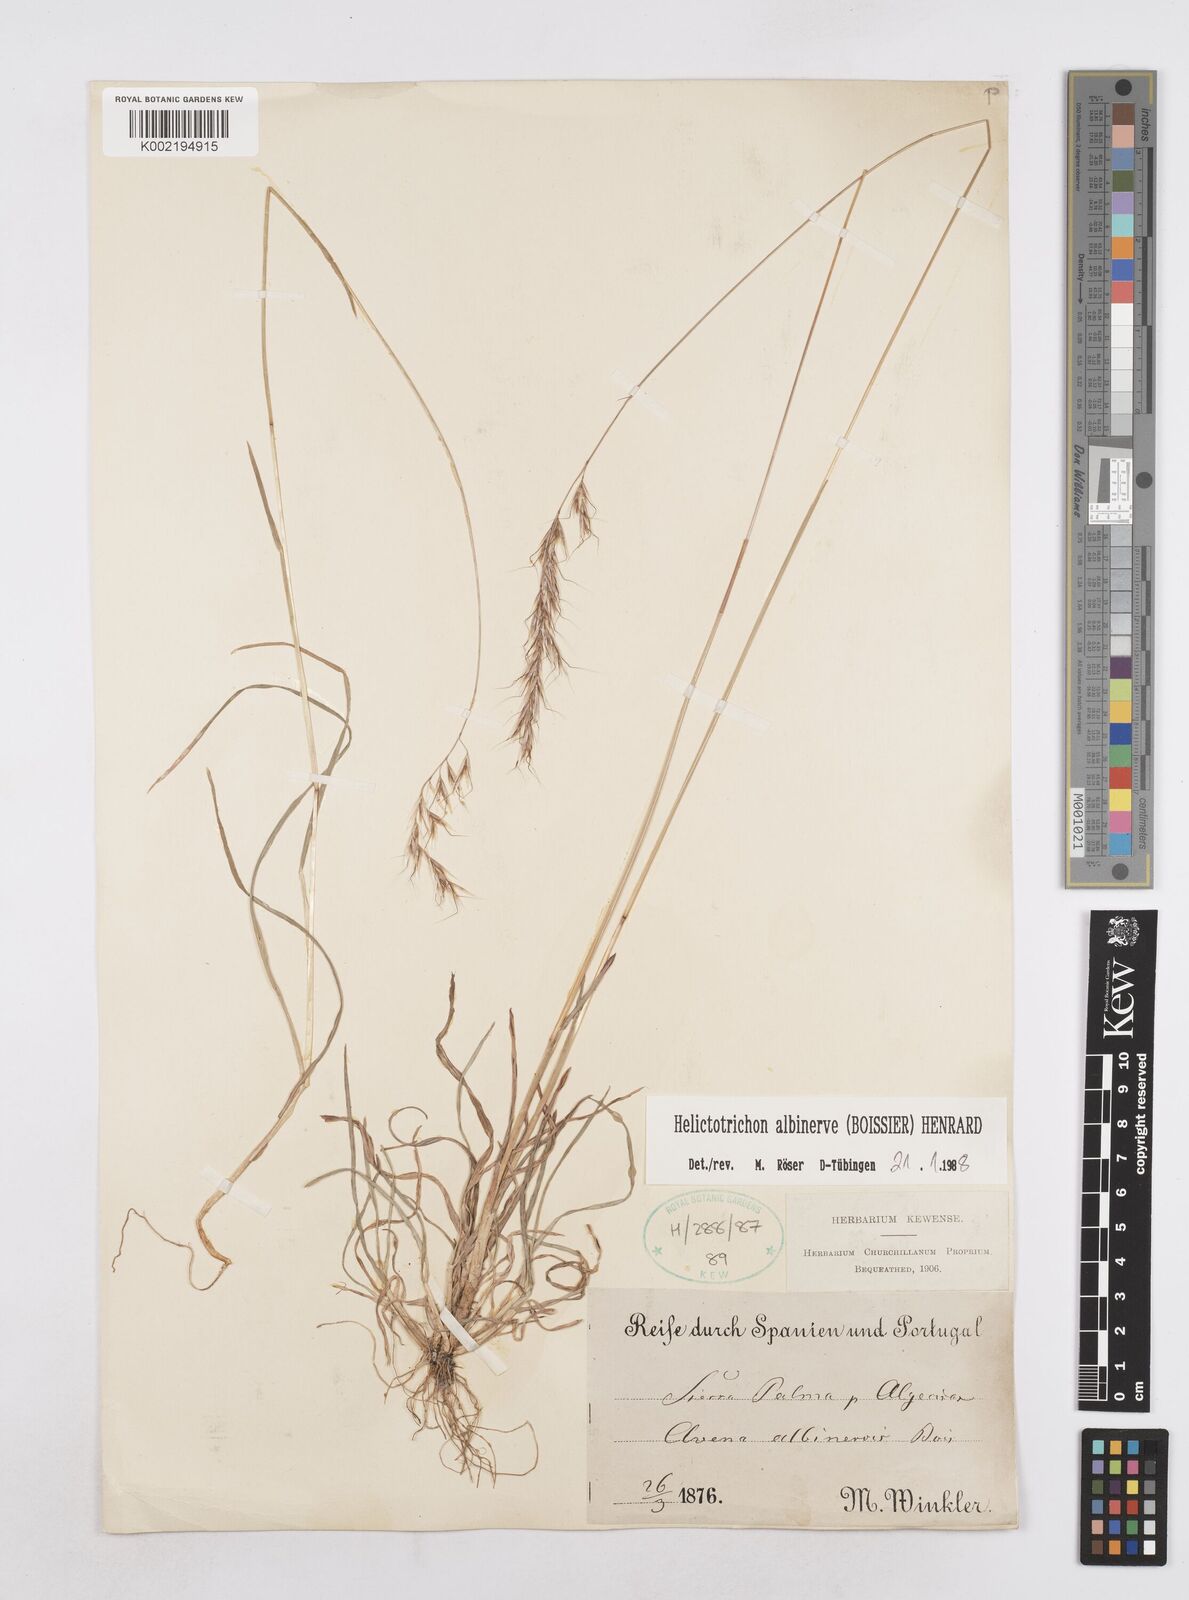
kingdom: Plantae
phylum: Tracheophyta
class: Liliopsida
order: Poales
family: Poaceae
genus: Helictochloa
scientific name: Helictochloa albinervis
